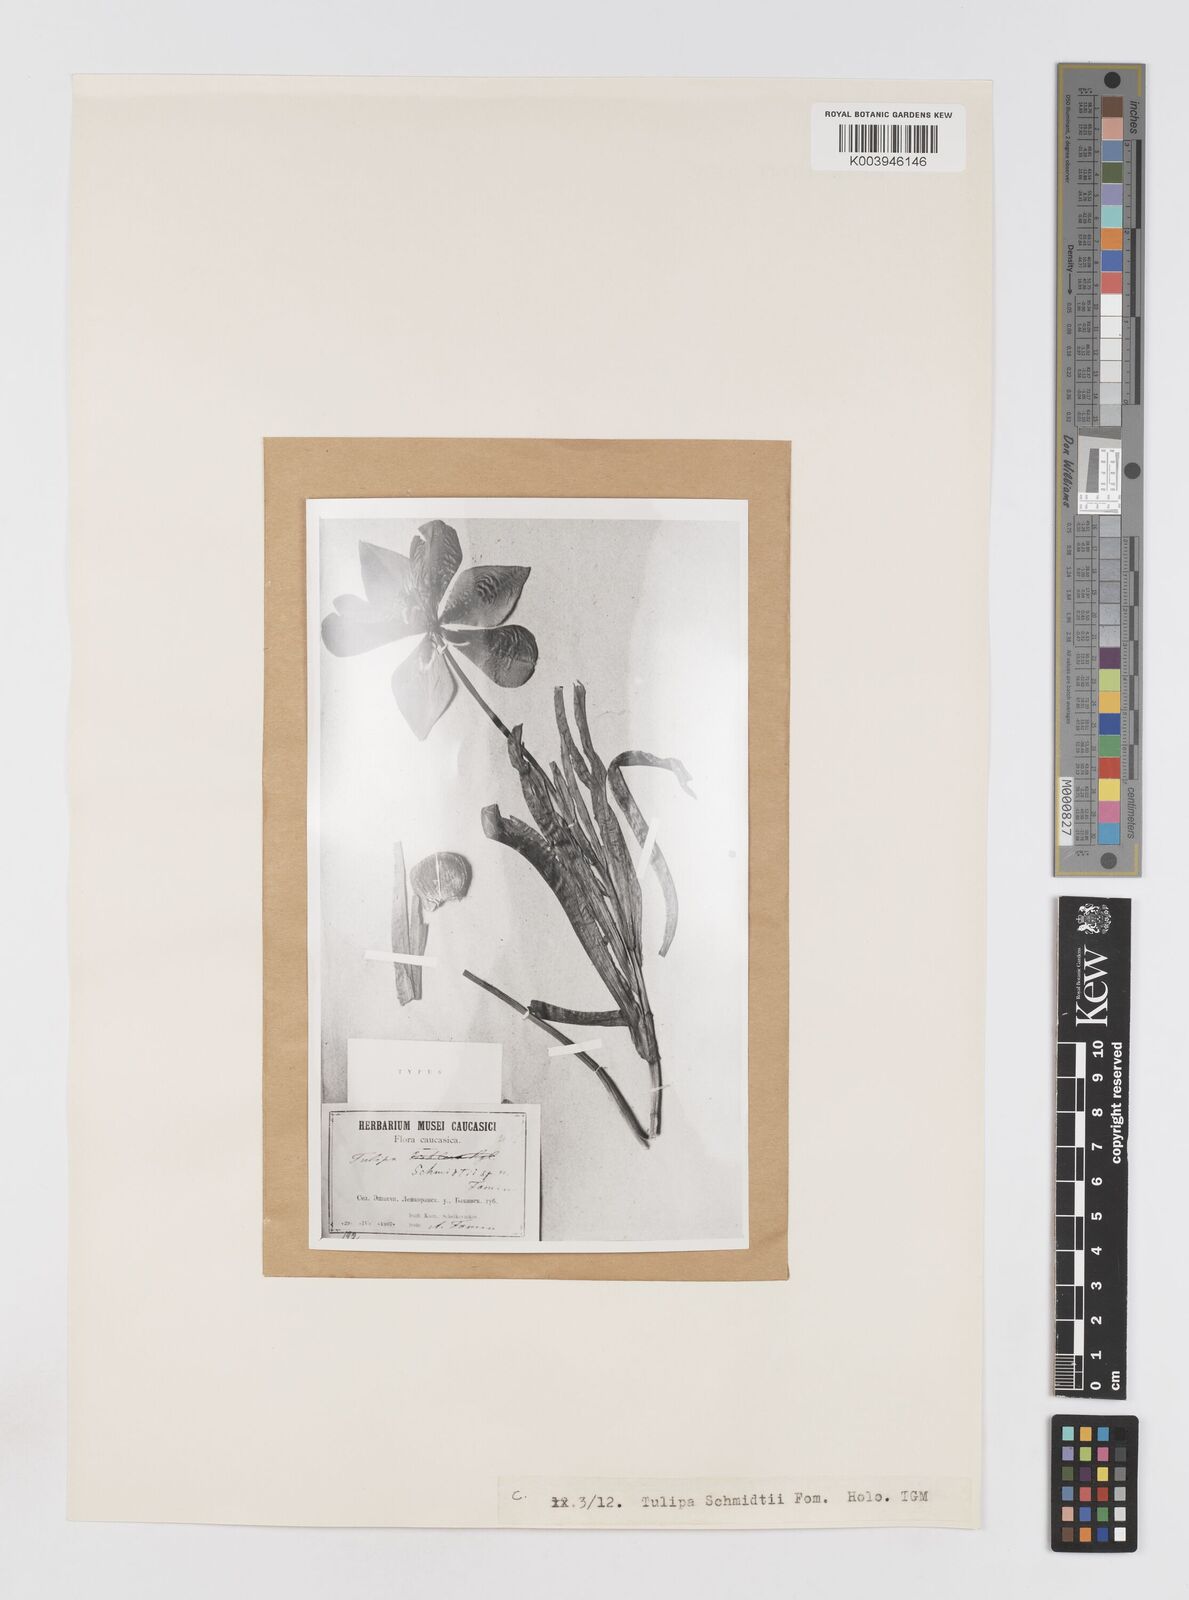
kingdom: Plantae
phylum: Tracheophyta
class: Liliopsida
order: Liliales
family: Liliaceae
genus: Tulipa
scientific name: Tulipa schmidtii
